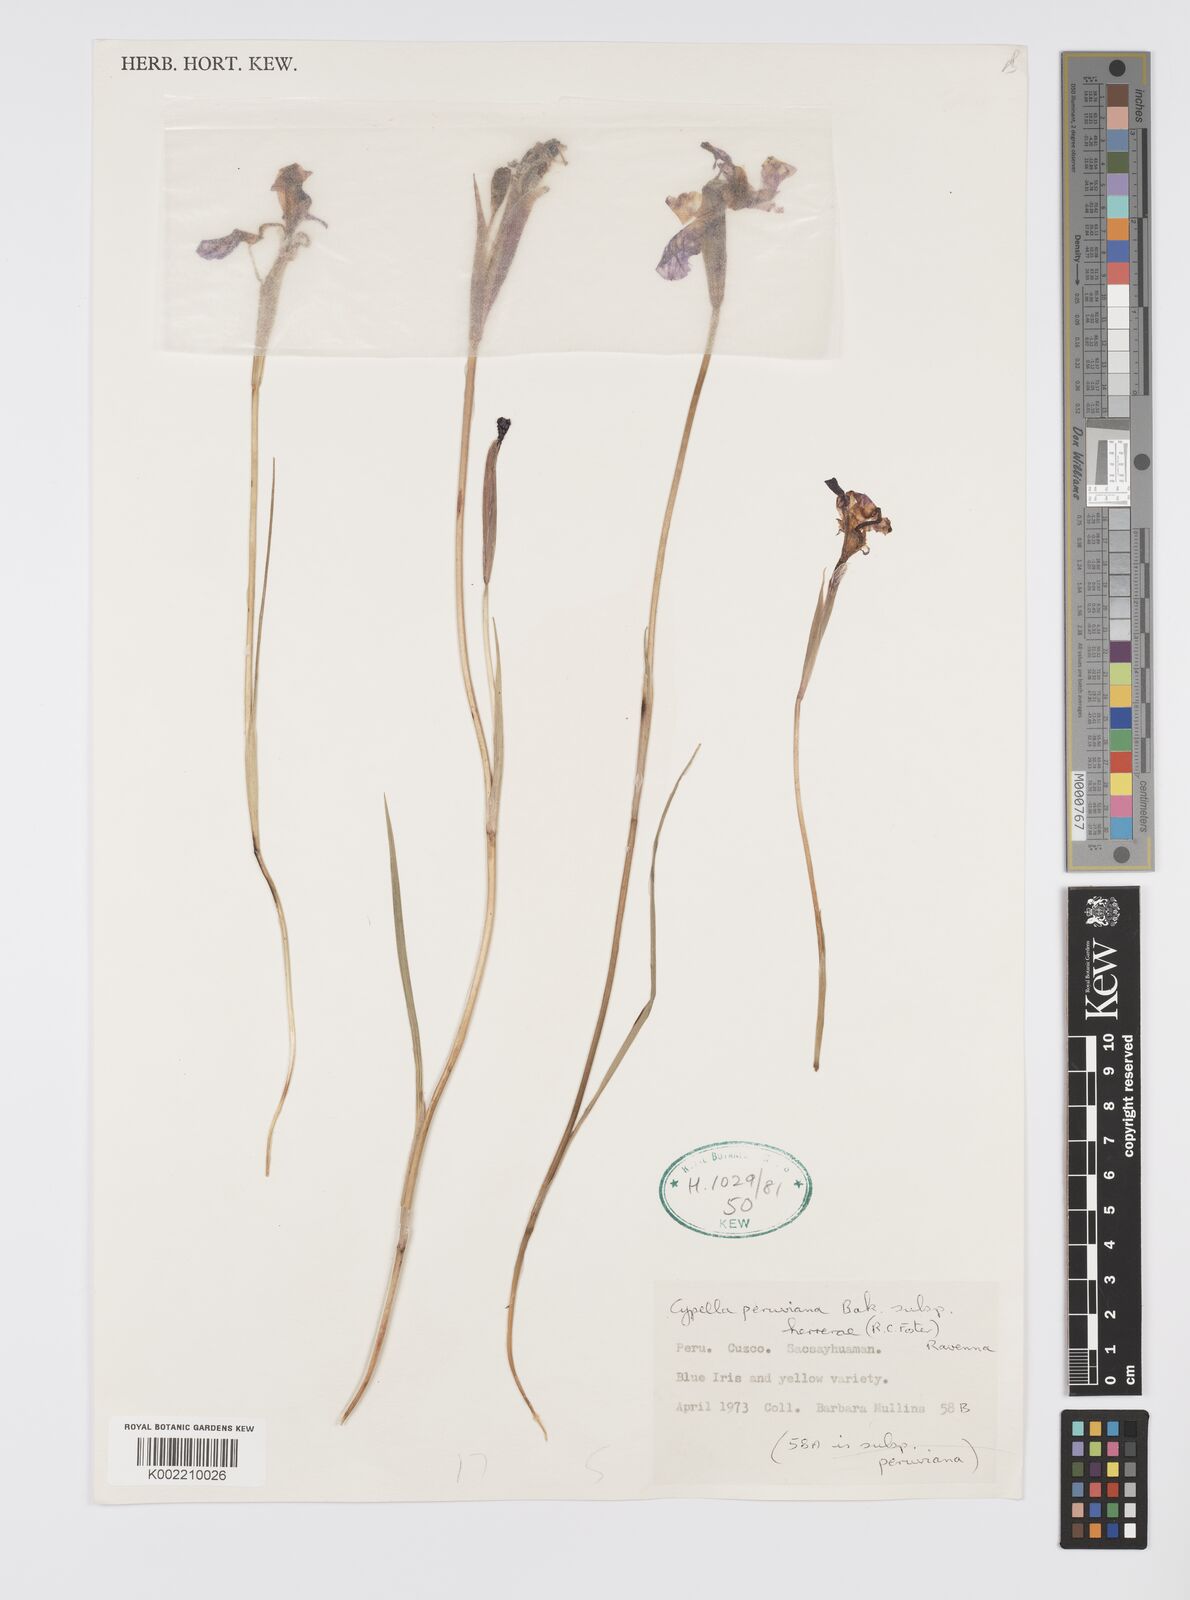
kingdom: Plantae
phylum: Tracheophyta
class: Liliopsida
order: Asparagales
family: Iridaceae
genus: Hesperoxiphion
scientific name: Hesperoxiphion herrerae
